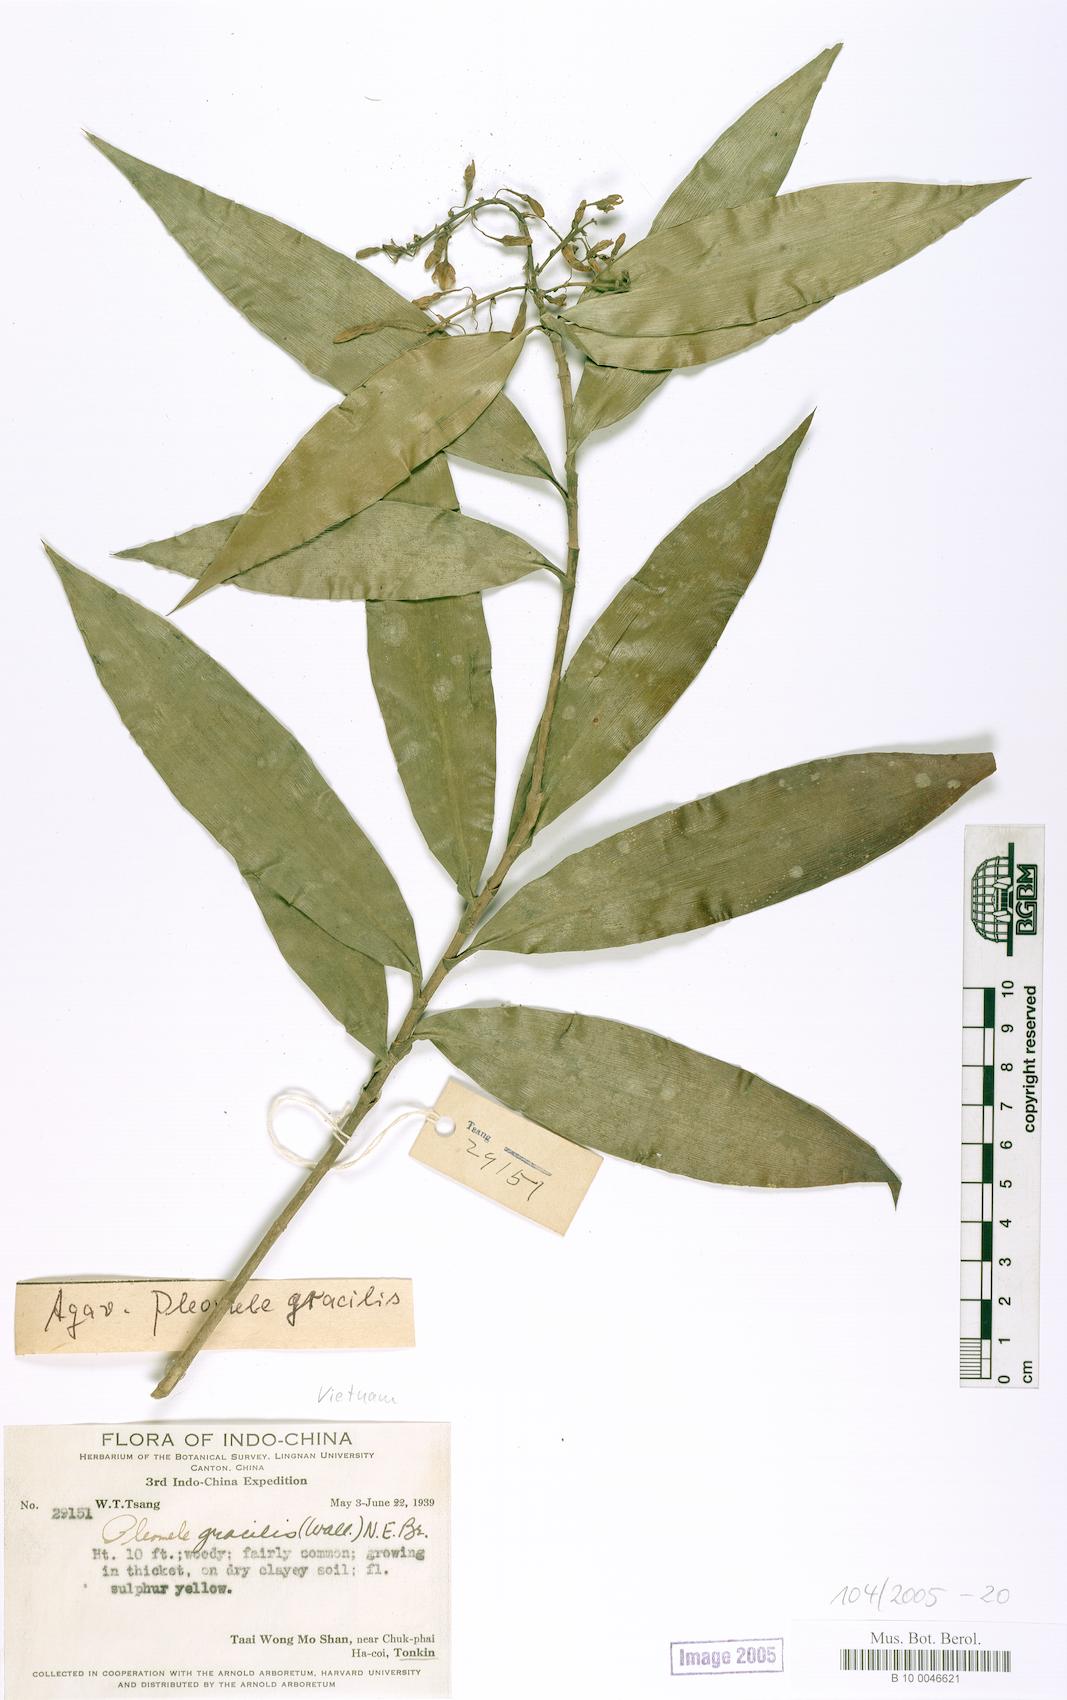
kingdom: Plantae
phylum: Tracheophyta
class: Liliopsida
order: Asparagales
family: Asparagaceae
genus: Dracaena
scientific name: Dracaena elliptica
